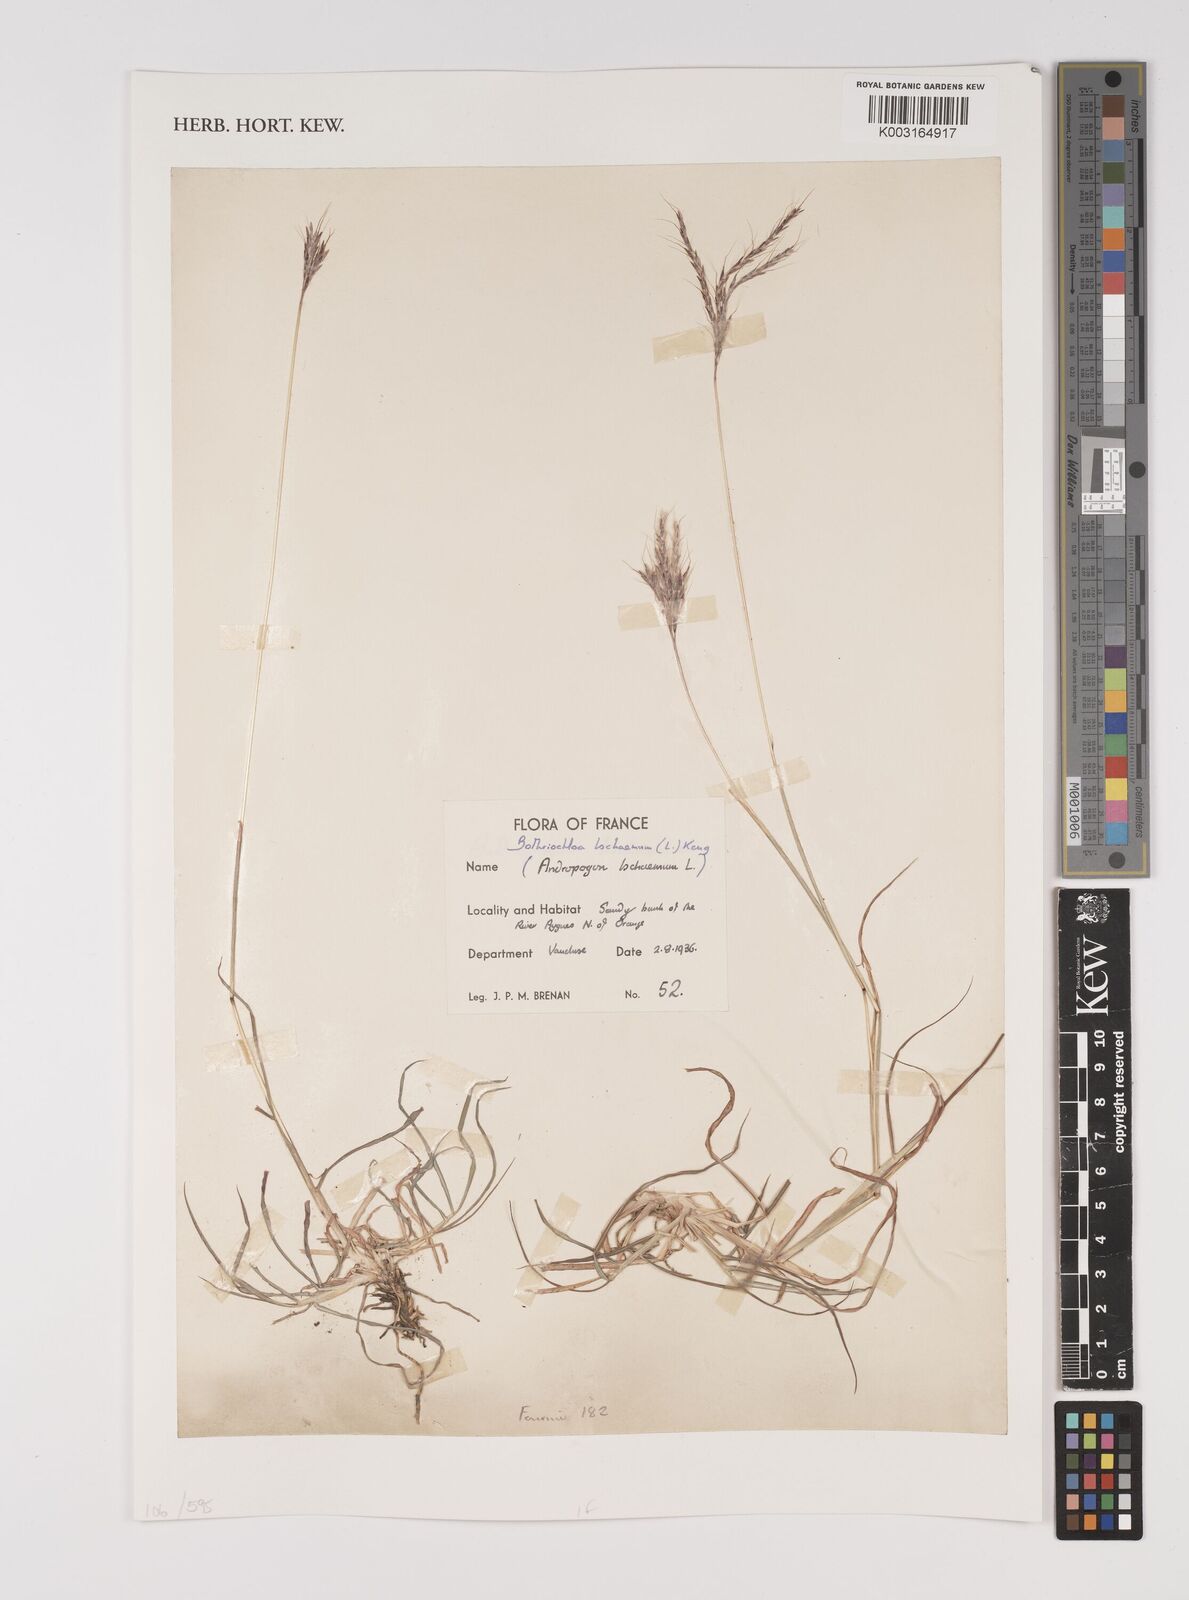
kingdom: Plantae
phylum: Tracheophyta
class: Liliopsida
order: Poales
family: Poaceae
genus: Bothriochloa
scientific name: Bothriochloa ischaemum
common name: Yellow bluestem
